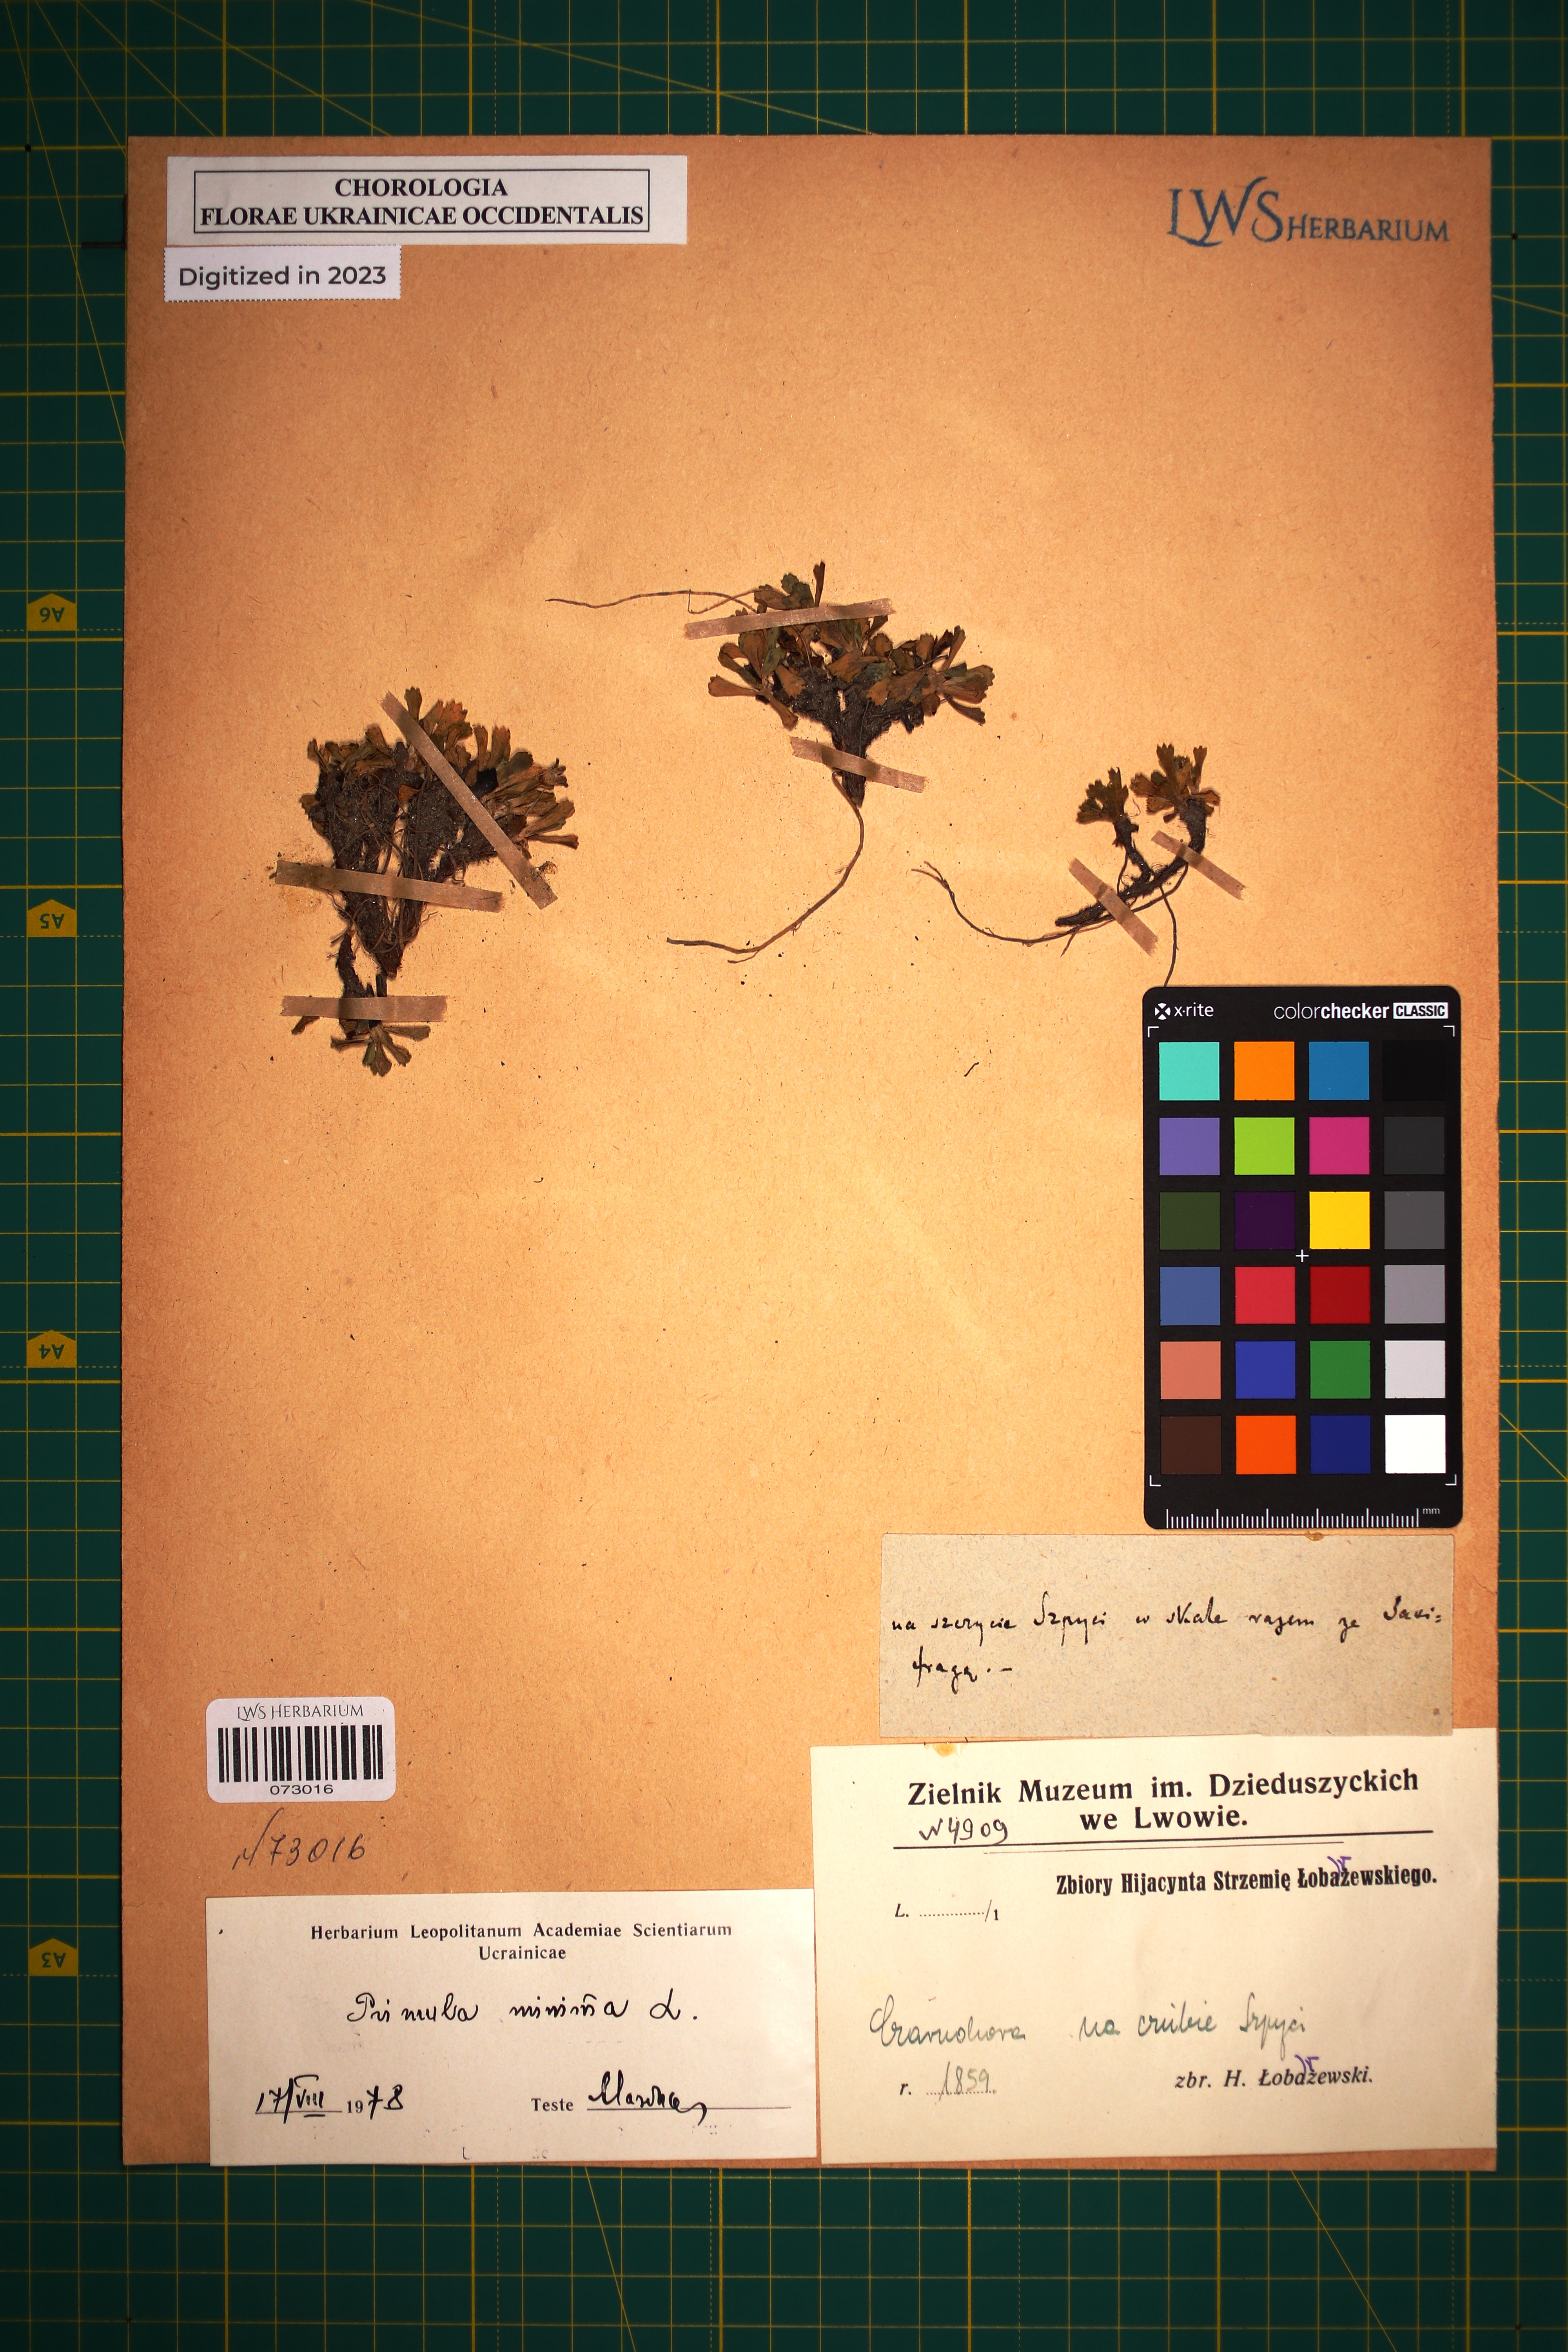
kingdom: Plantae
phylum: Tracheophyta
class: Magnoliopsida
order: Ericales
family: Primulaceae
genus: Primula
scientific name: Primula minima
